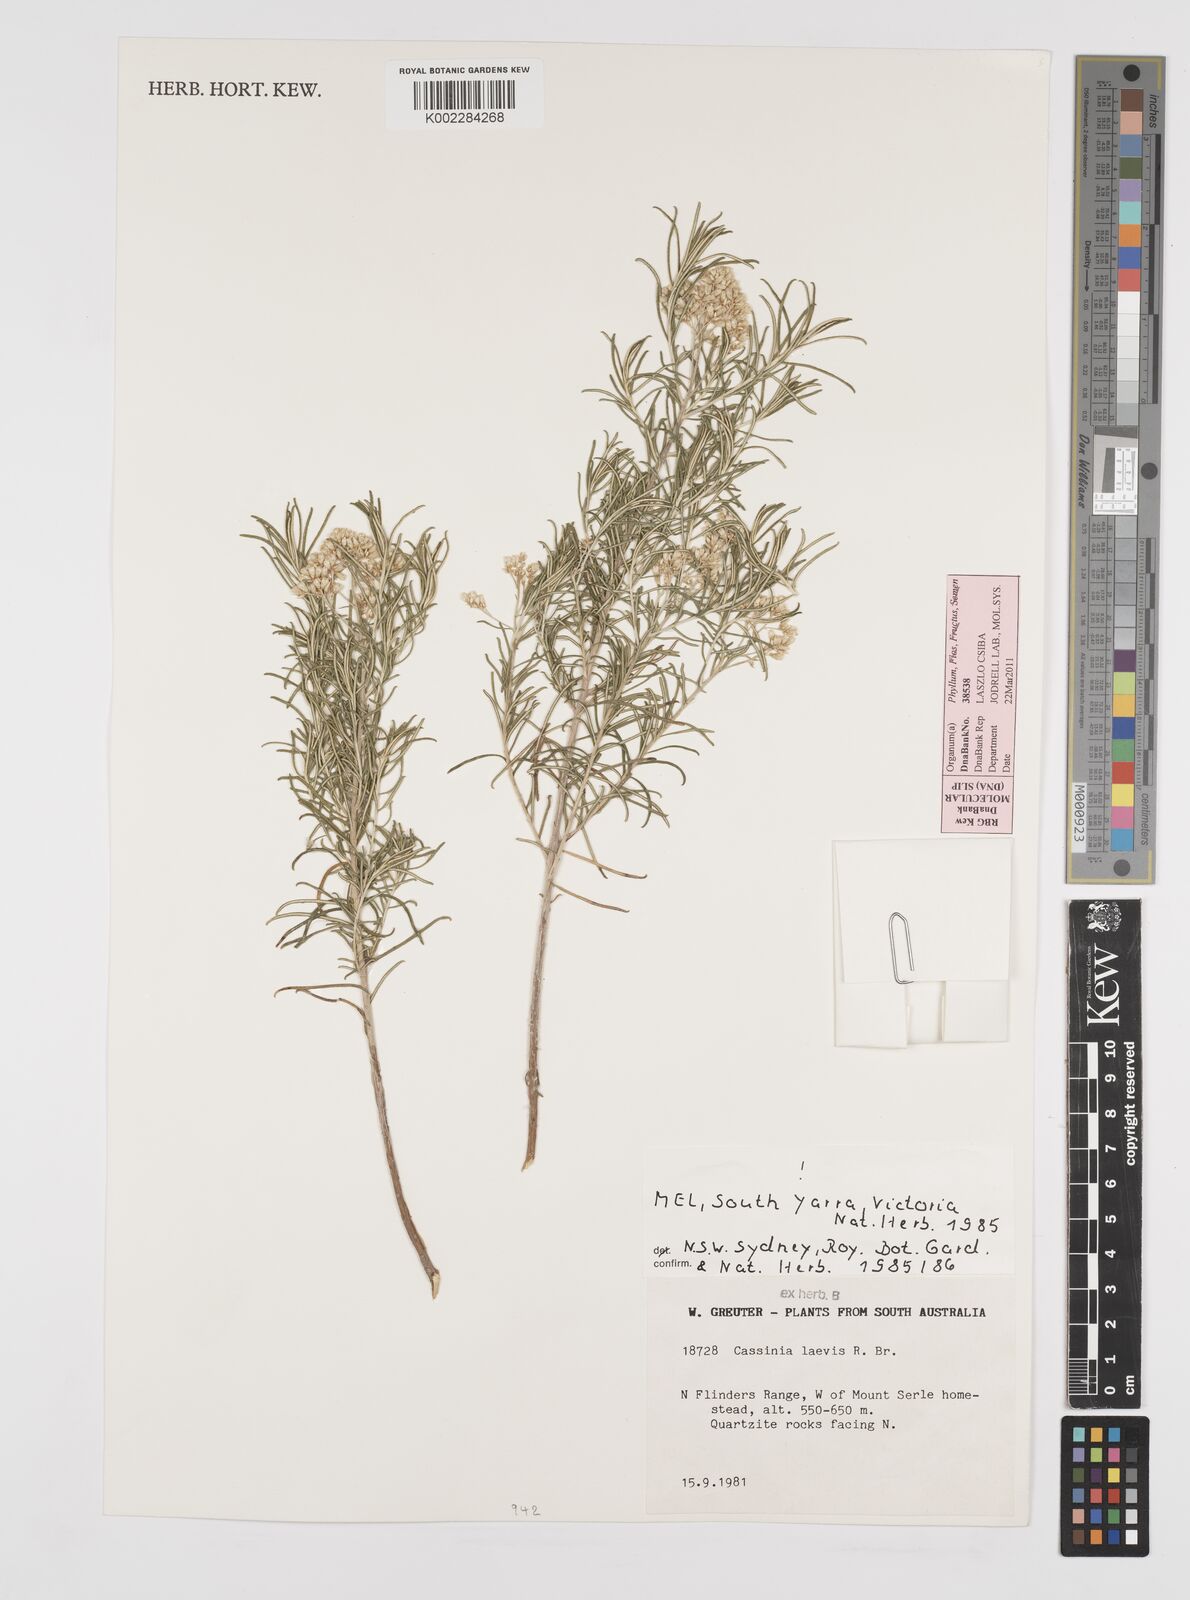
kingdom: Plantae
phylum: Tracheophyta
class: Magnoliopsida
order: Asterales
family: Asteraceae
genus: Cassinia
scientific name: Cassinia laevis
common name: Coughbush
